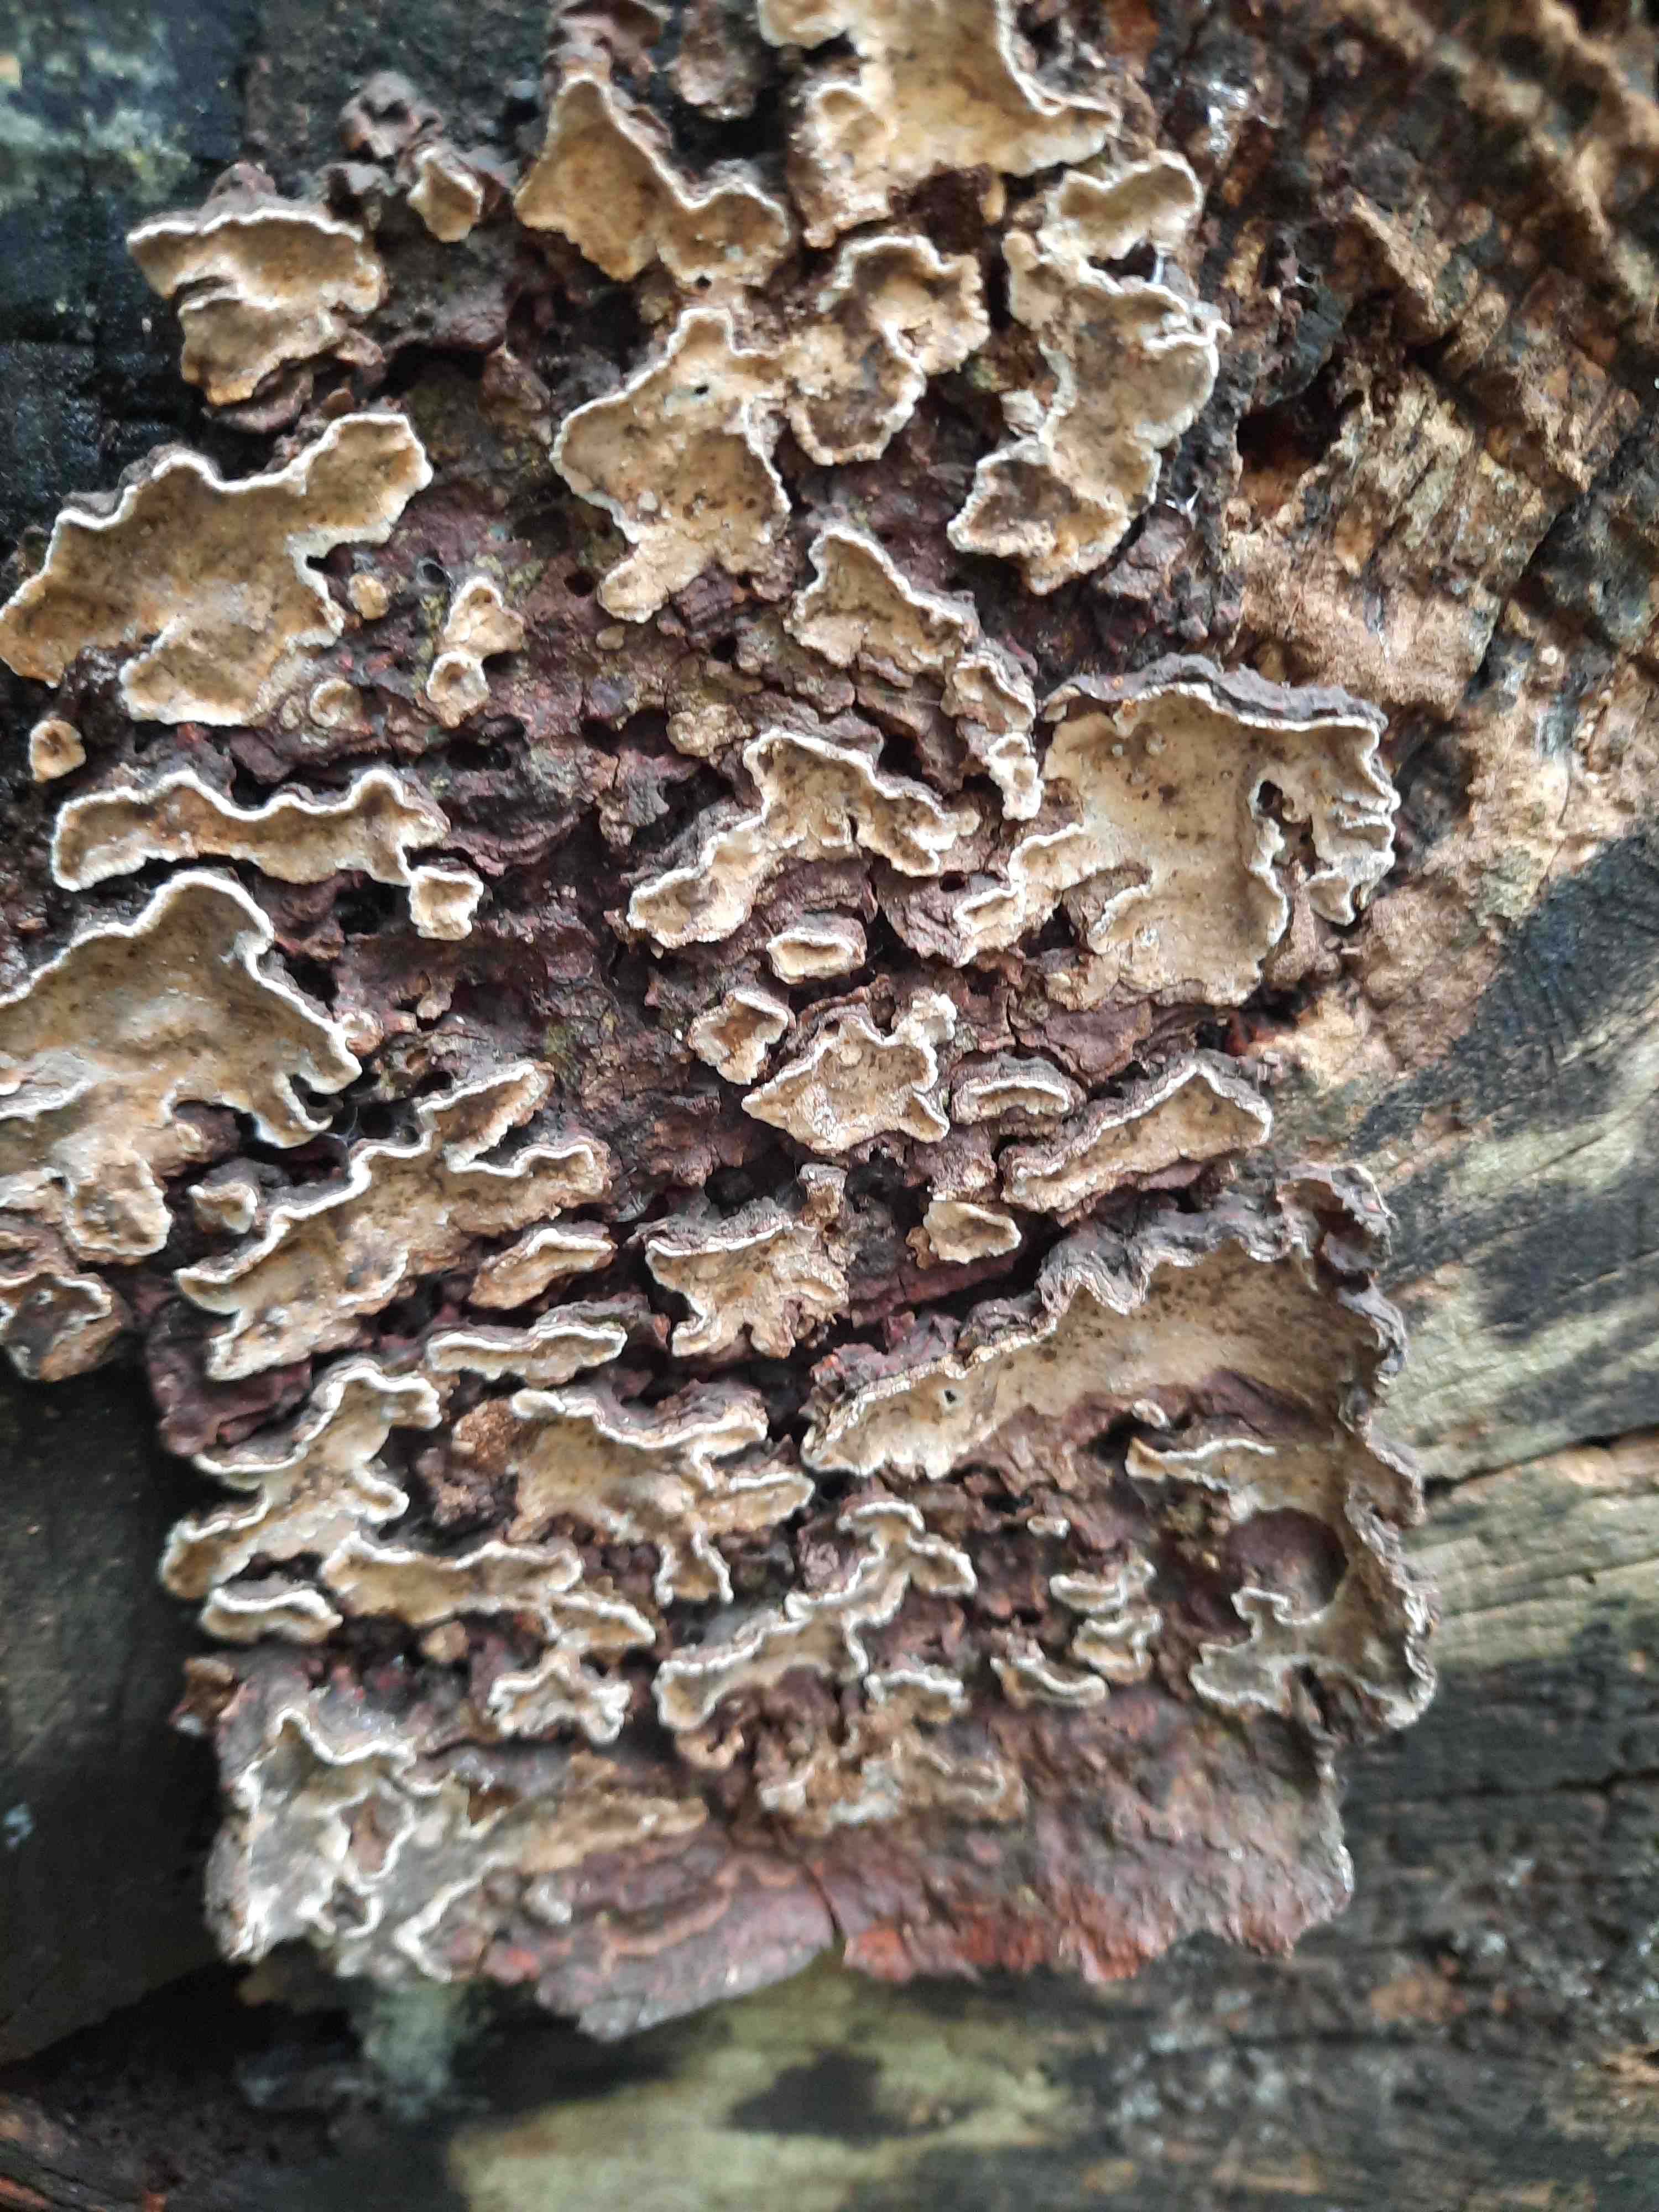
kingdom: Fungi
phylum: Basidiomycota
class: Agaricomycetes
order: Russulales
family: Stereaceae
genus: Stereum
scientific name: Stereum rugosum
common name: rynket lædersvamp
